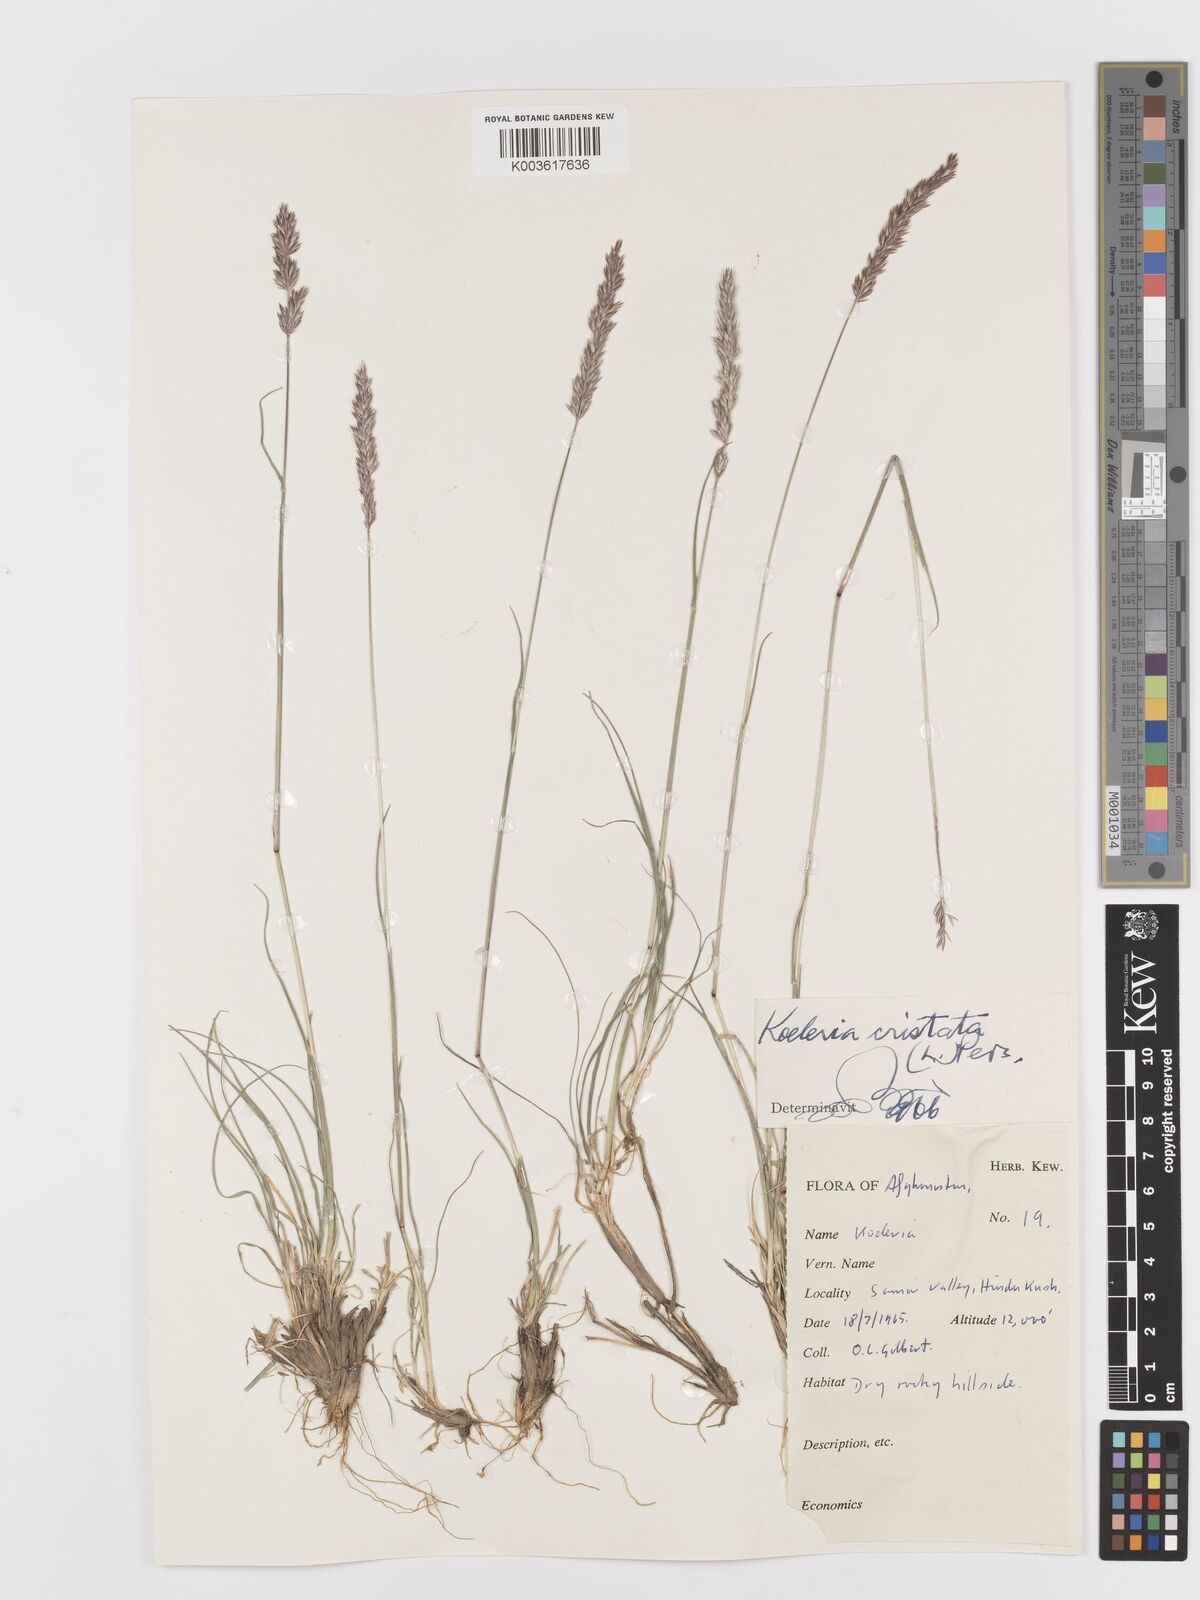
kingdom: Plantae
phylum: Tracheophyta
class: Liliopsida
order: Poales
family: Poaceae
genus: Koeleria
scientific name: Koeleria macrantha
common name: Crested hair-grass
